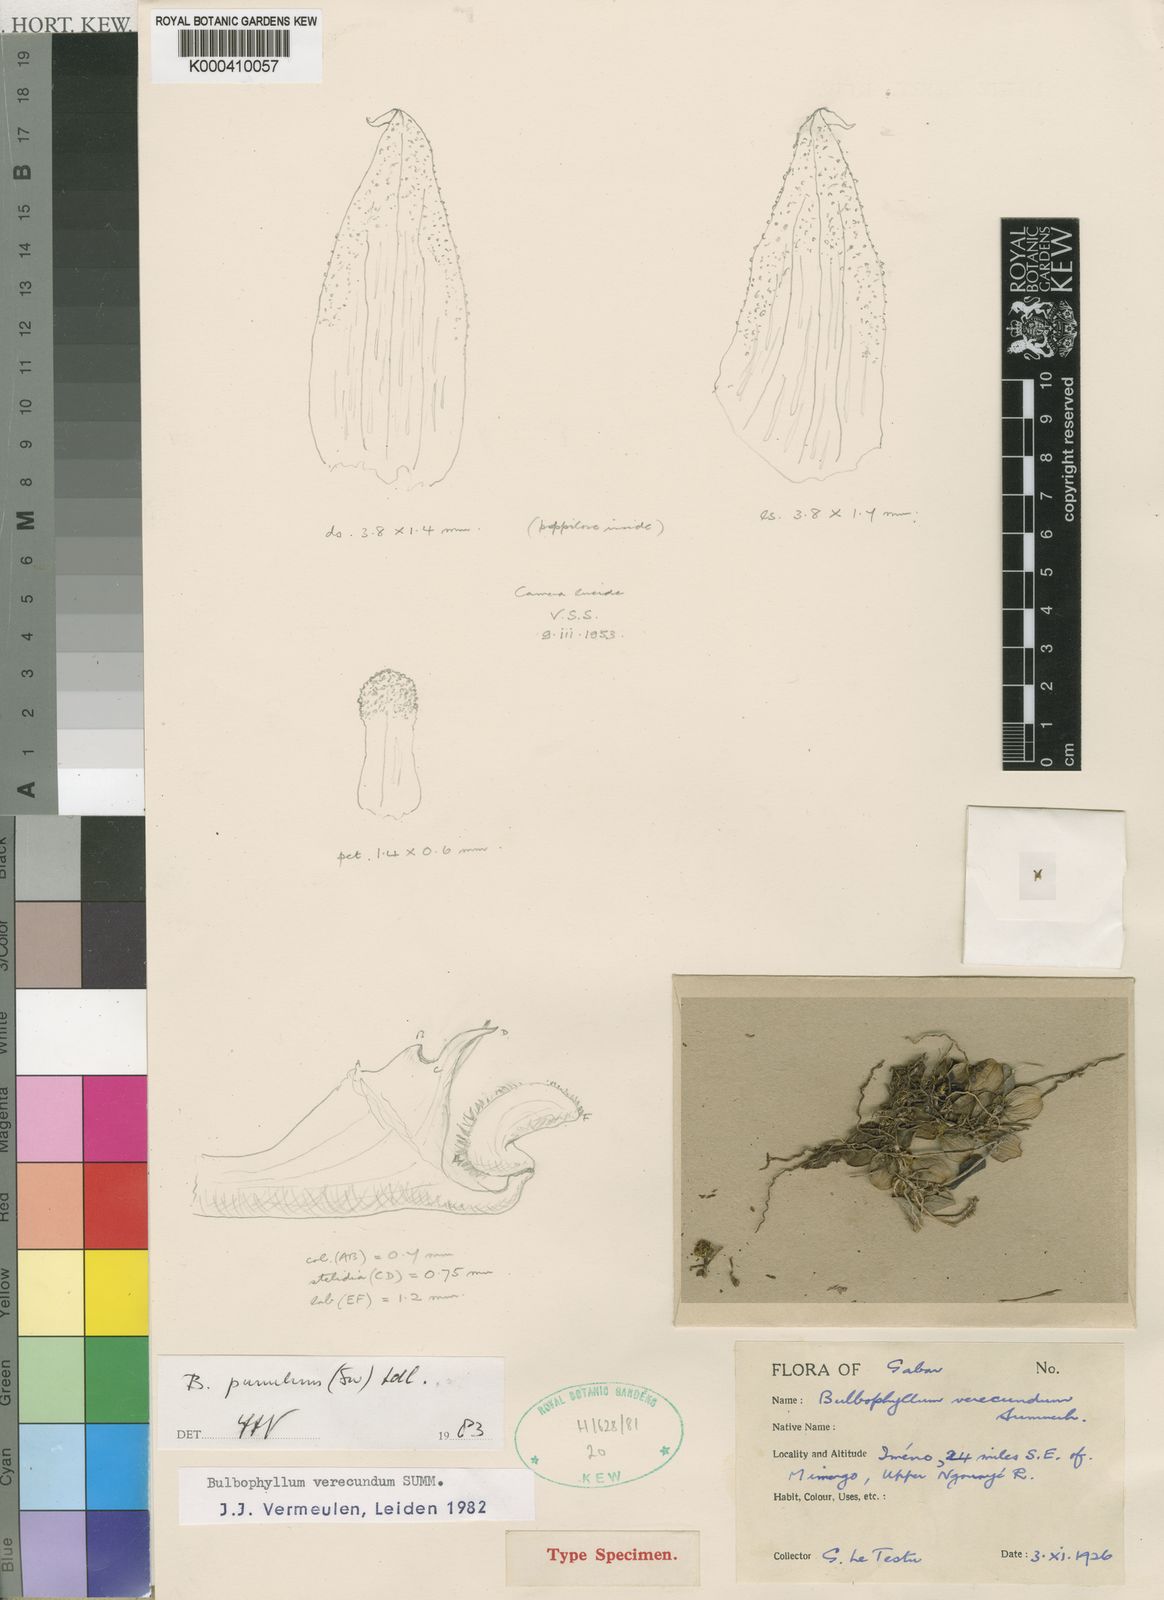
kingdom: Plantae
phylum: Tracheophyta
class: Liliopsida
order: Asparagales
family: Orchidaceae
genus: Bulbophyllum
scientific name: Bulbophyllum pumilum
